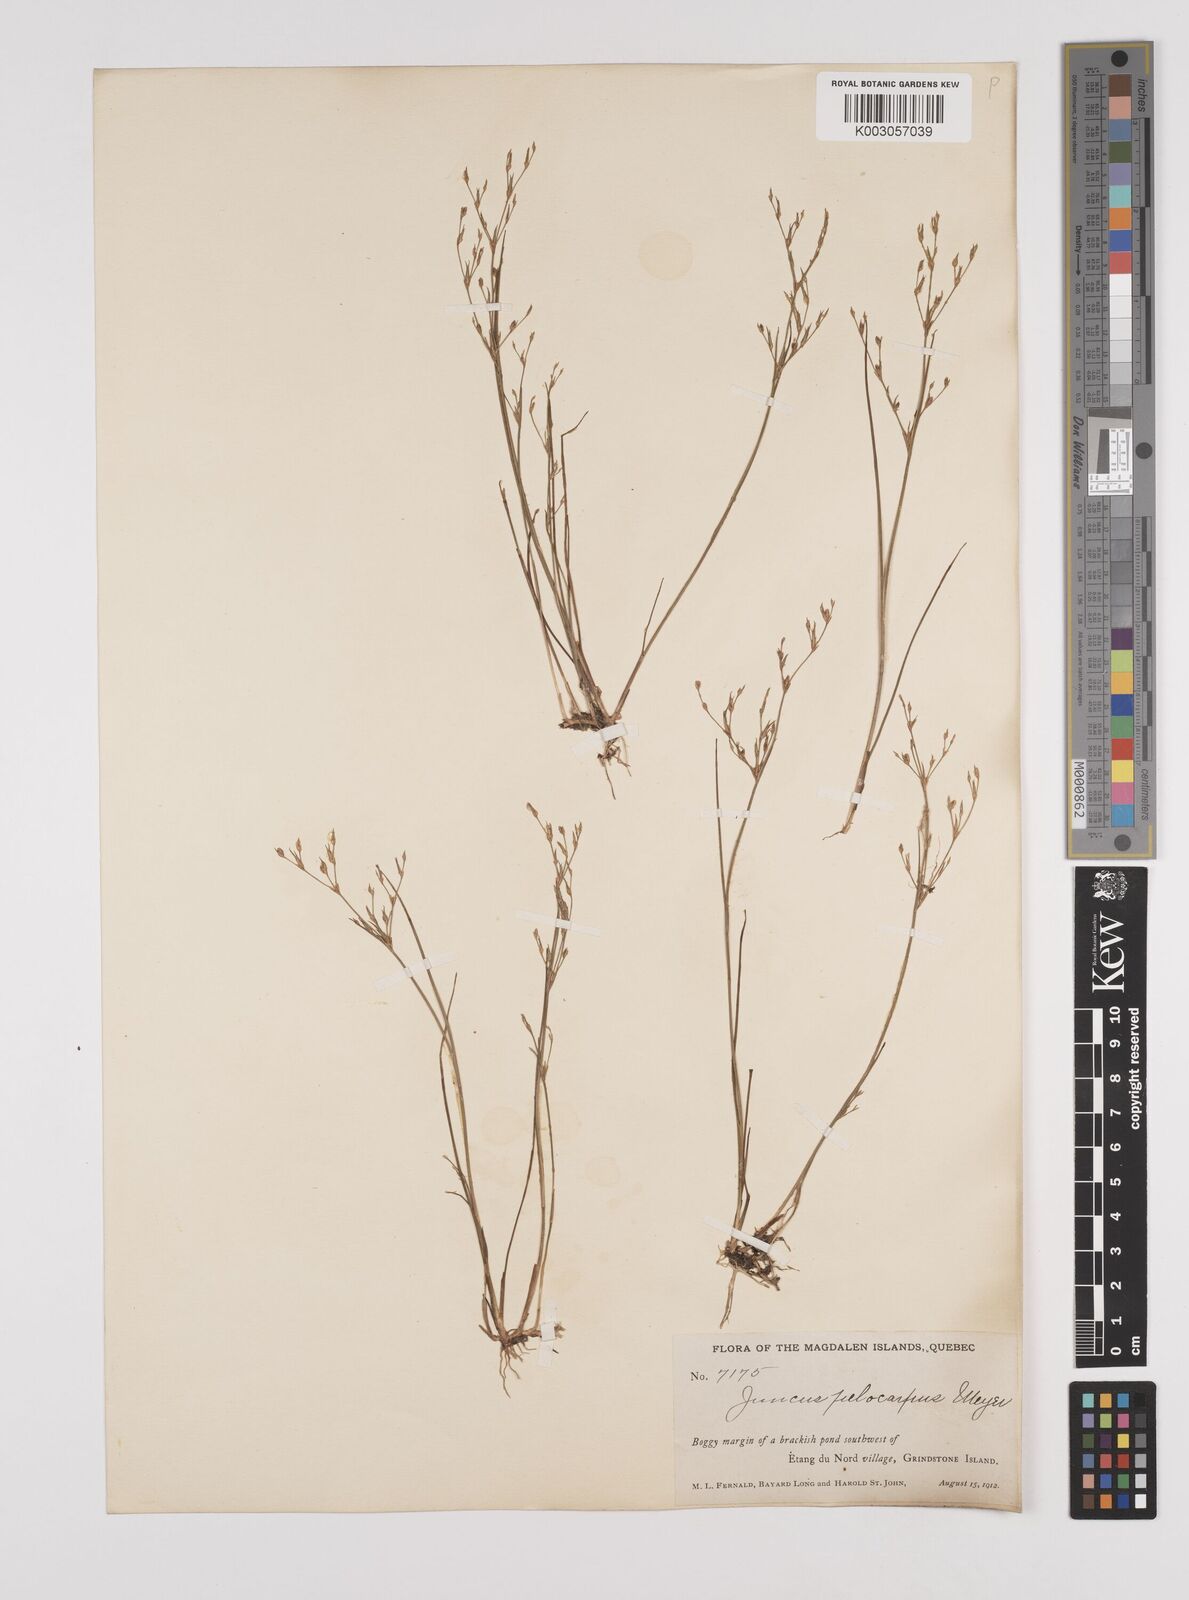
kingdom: Plantae
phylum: Tracheophyta
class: Liliopsida
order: Poales
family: Juncaceae
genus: Juncus
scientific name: Juncus pelocarpus
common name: Brown-fruited rush
